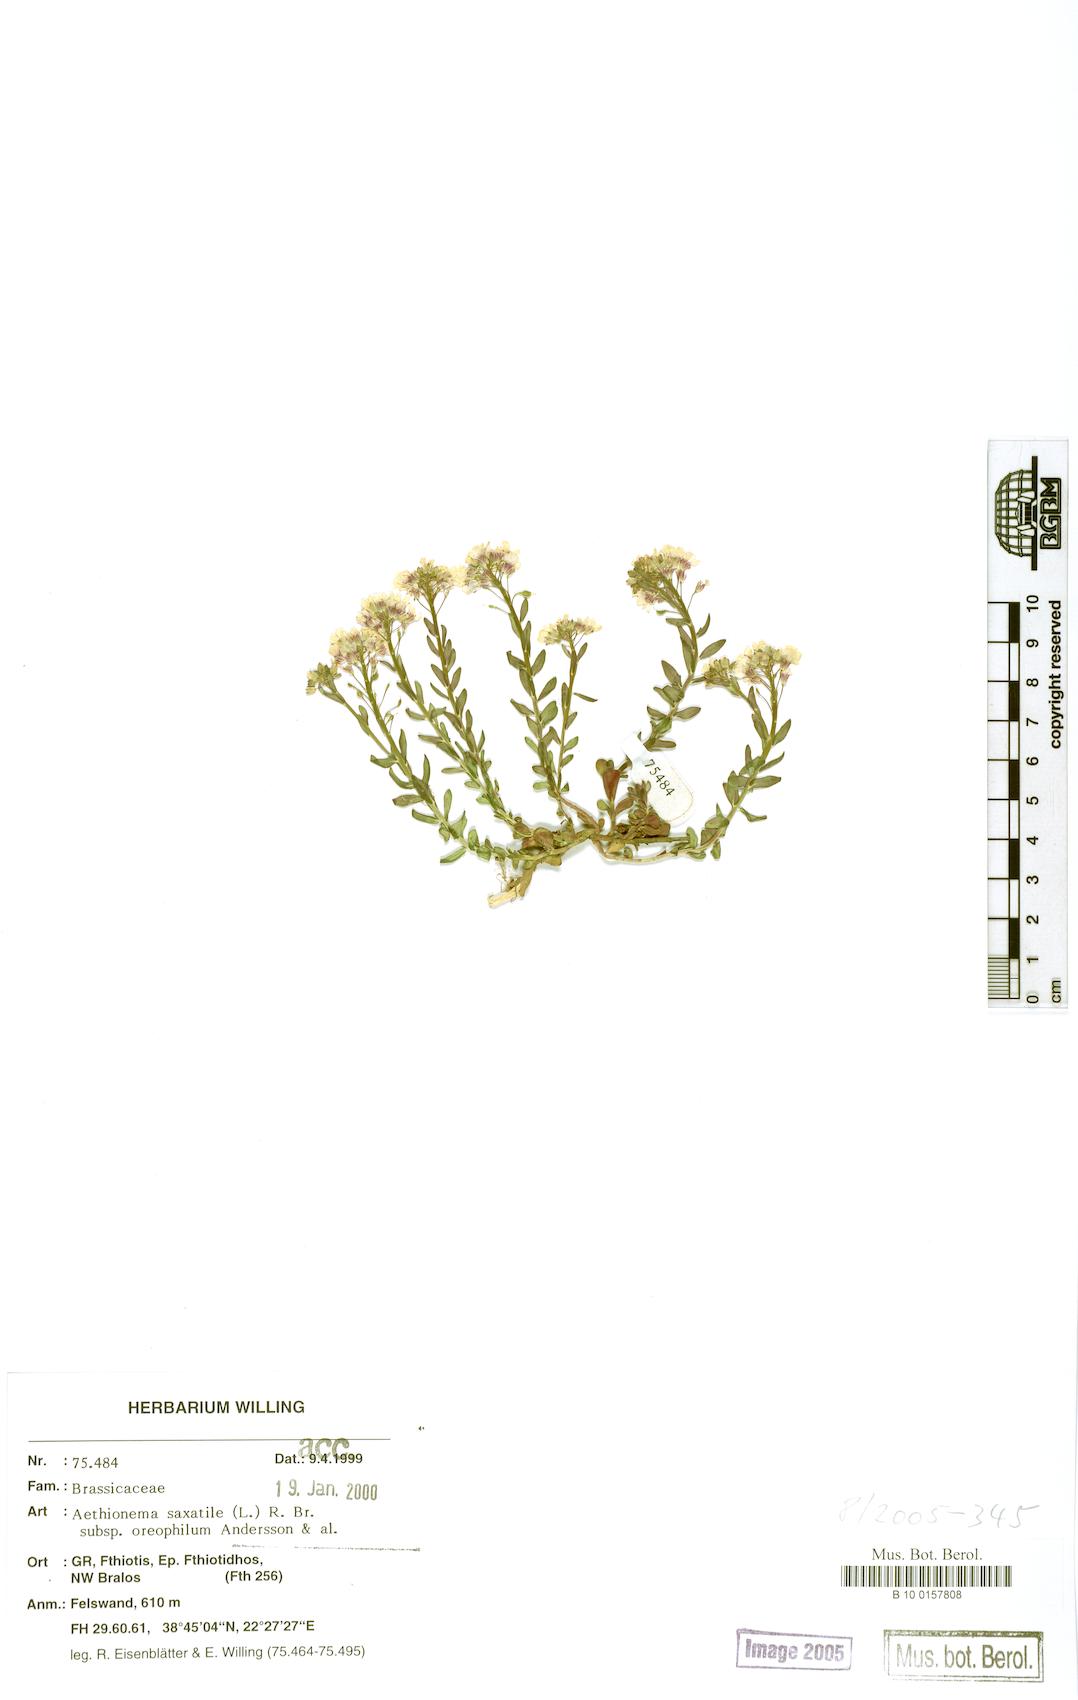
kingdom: Plantae
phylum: Tracheophyta
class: Magnoliopsida
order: Brassicales
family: Brassicaceae
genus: Aethionema
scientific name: Aethionema saxatile
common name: Burnt candytuft
